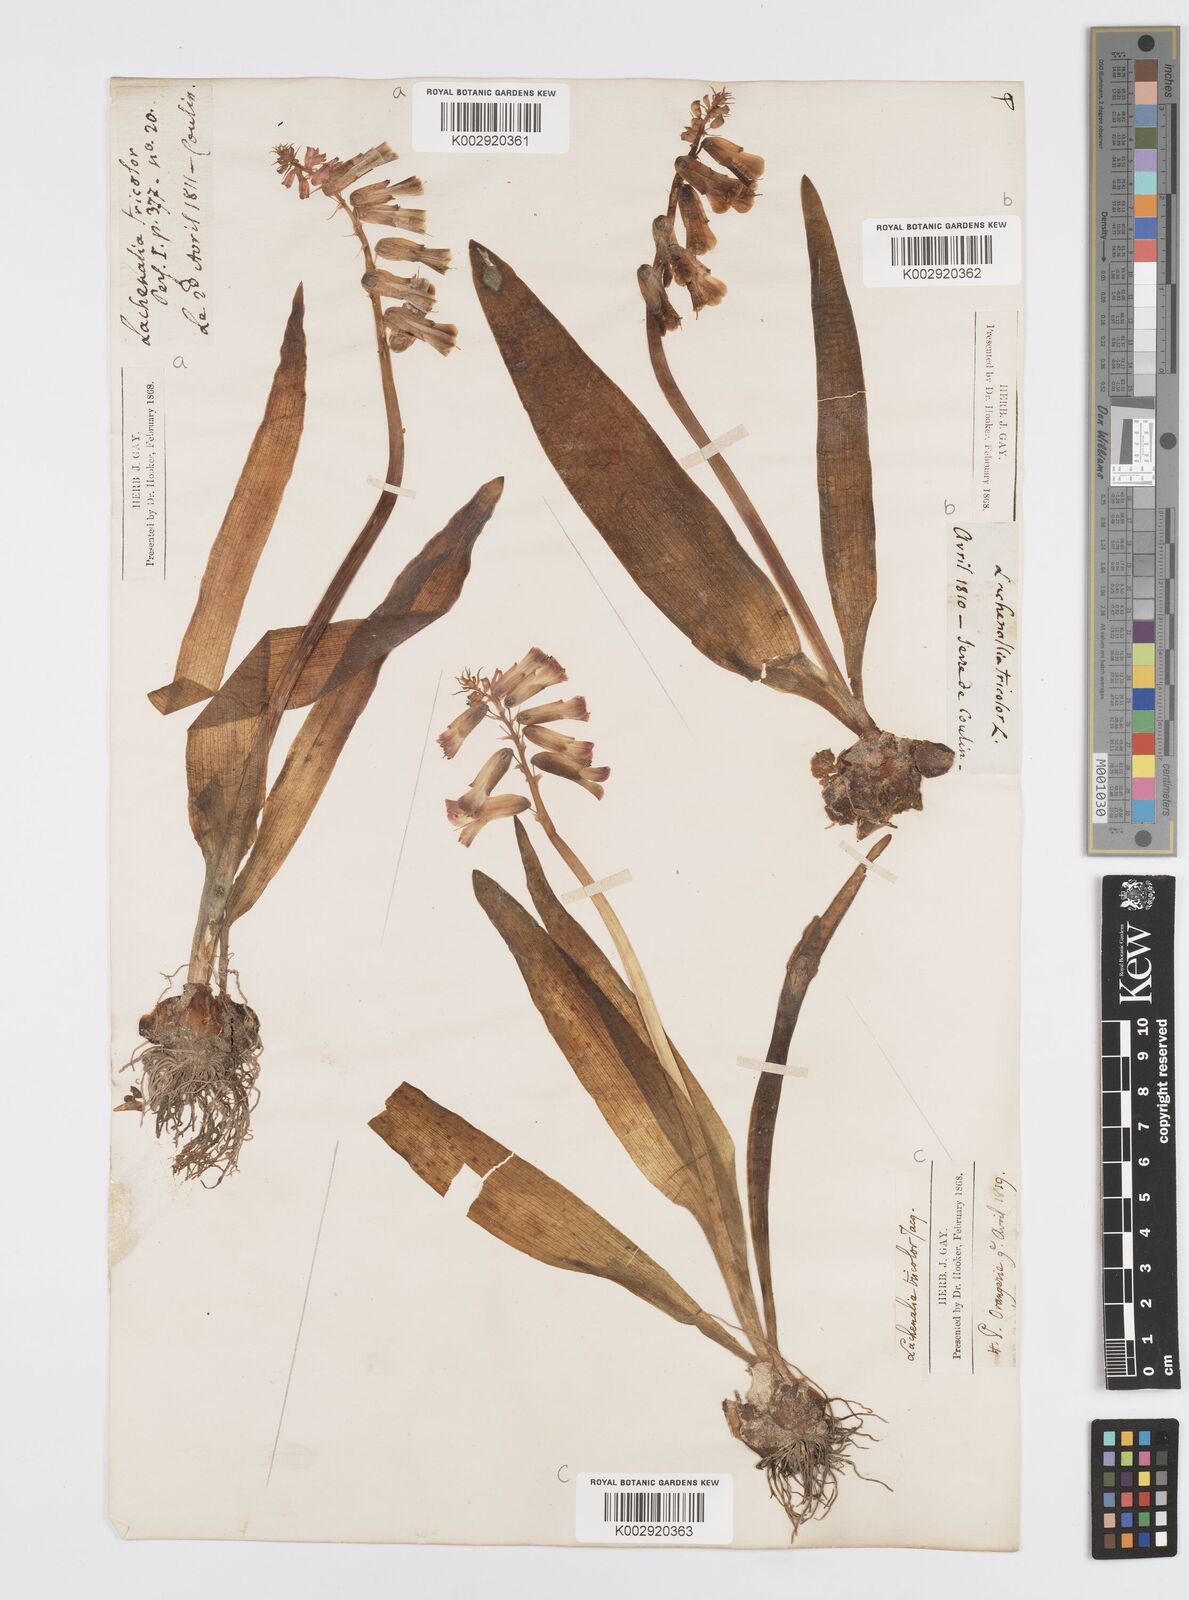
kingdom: Plantae
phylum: Tracheophyta
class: Liliopsida
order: Asparagales
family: Asparagaceae
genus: Lachenalia
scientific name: Lachenalia aloides
